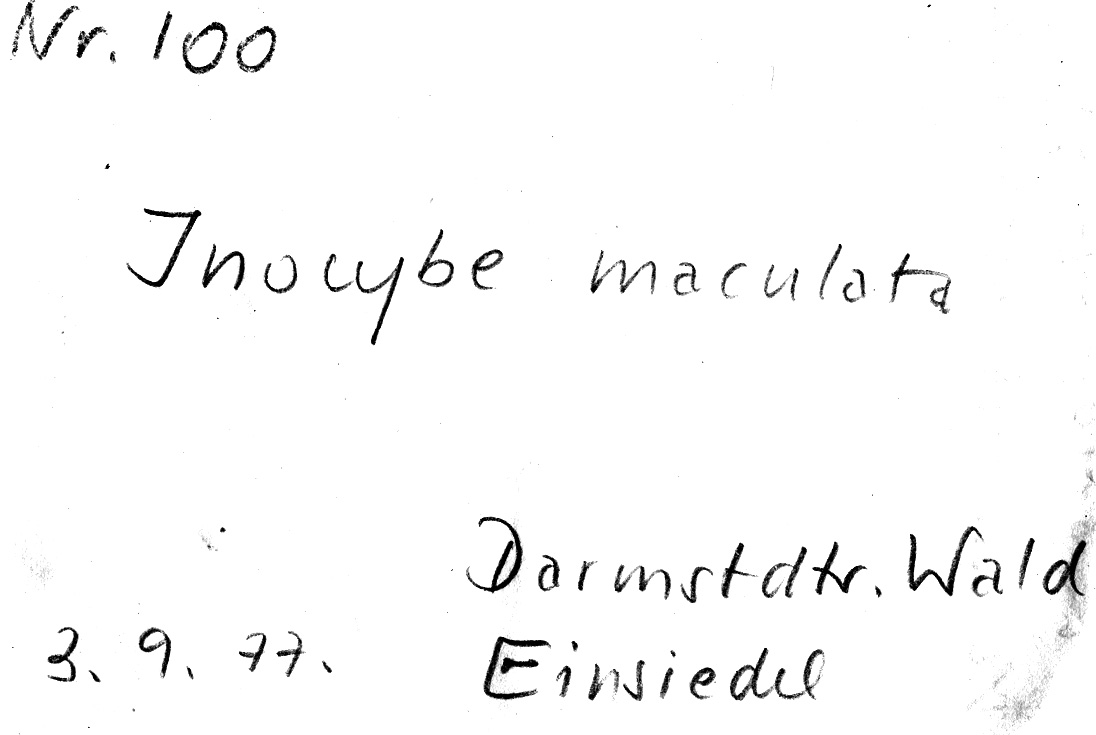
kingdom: Fungi
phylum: Basidiomycota
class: Agaricomycetes
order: Agaricales
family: Inocybaceae
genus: Inosperma
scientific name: Inosperma maculatum
